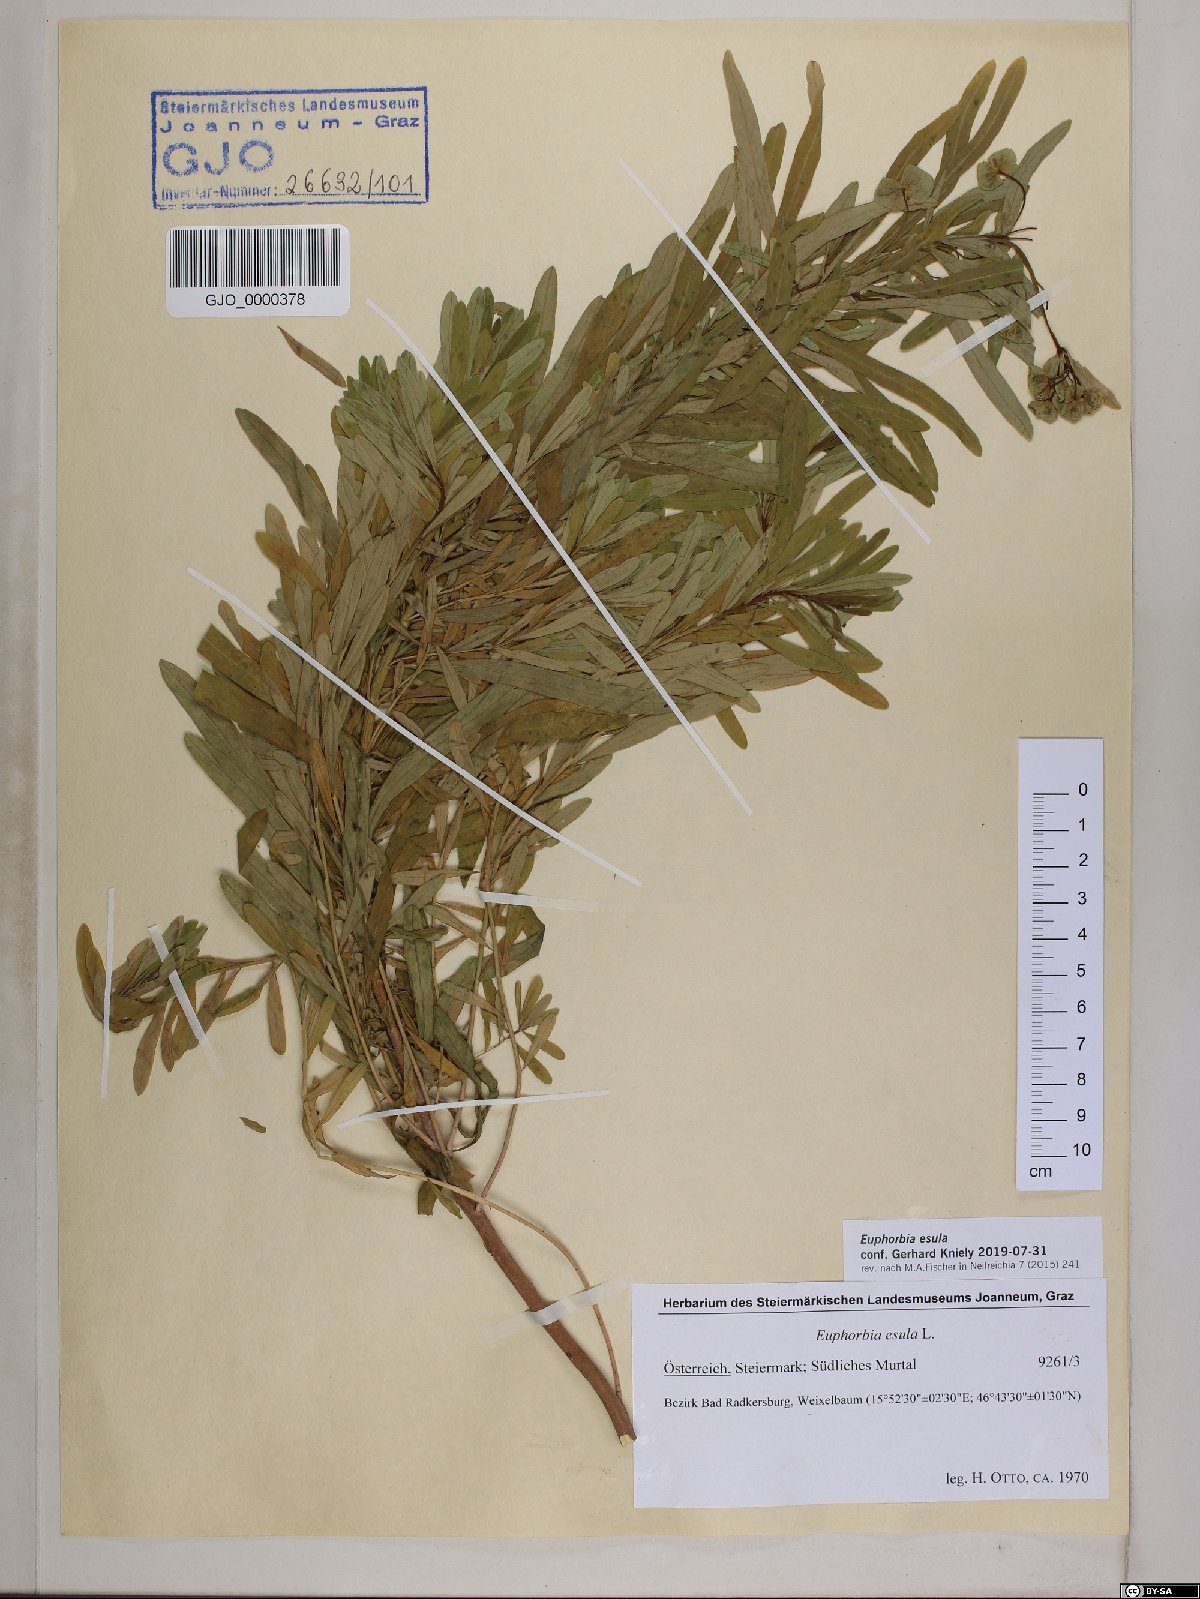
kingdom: Plantae
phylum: Tracheophyta
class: Magnoliopsida
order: Malpighiales
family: Euphorbiaceae
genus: Euphorbia
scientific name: Euphorbia esula
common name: Leafy spurge
